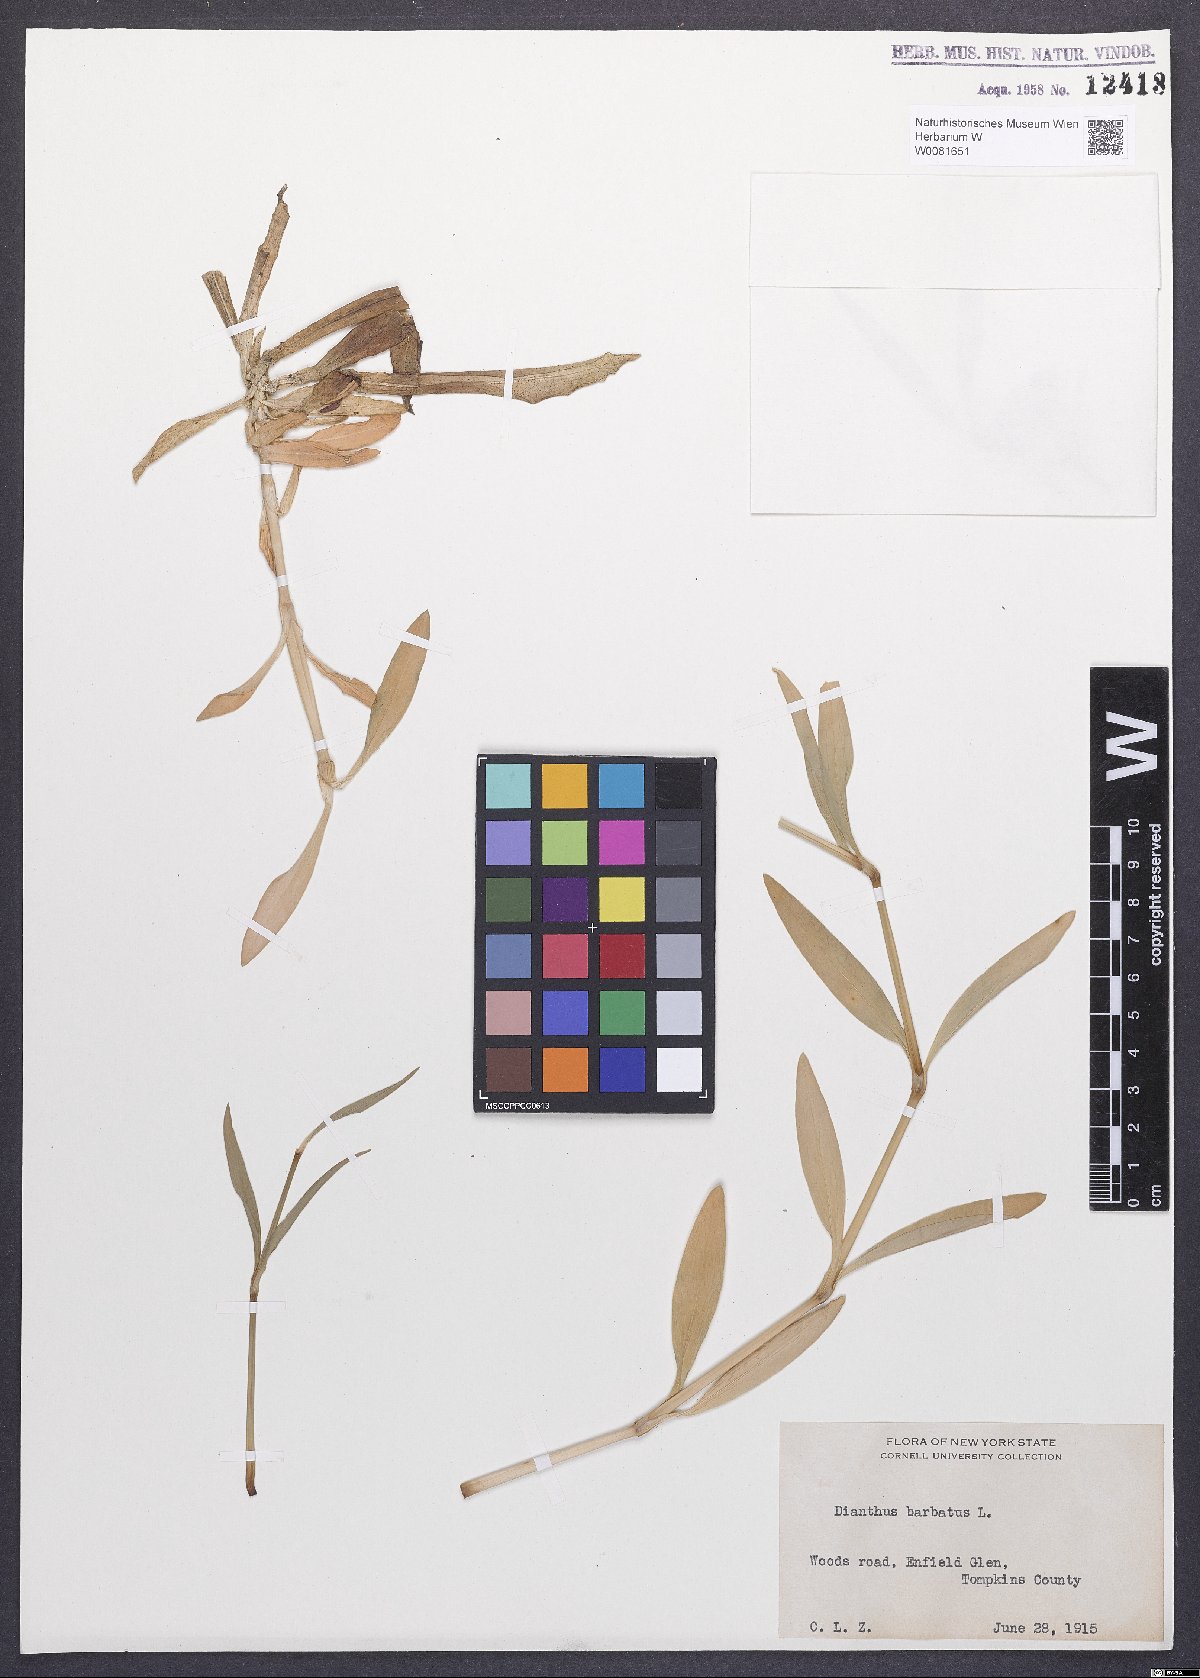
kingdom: Plantae
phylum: Tracheophyta
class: Magnoliopsida
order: Caryophyllales
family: Caryophyllaceae
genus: Dianthus
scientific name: Dianthus barbatus
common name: Sweet-william
